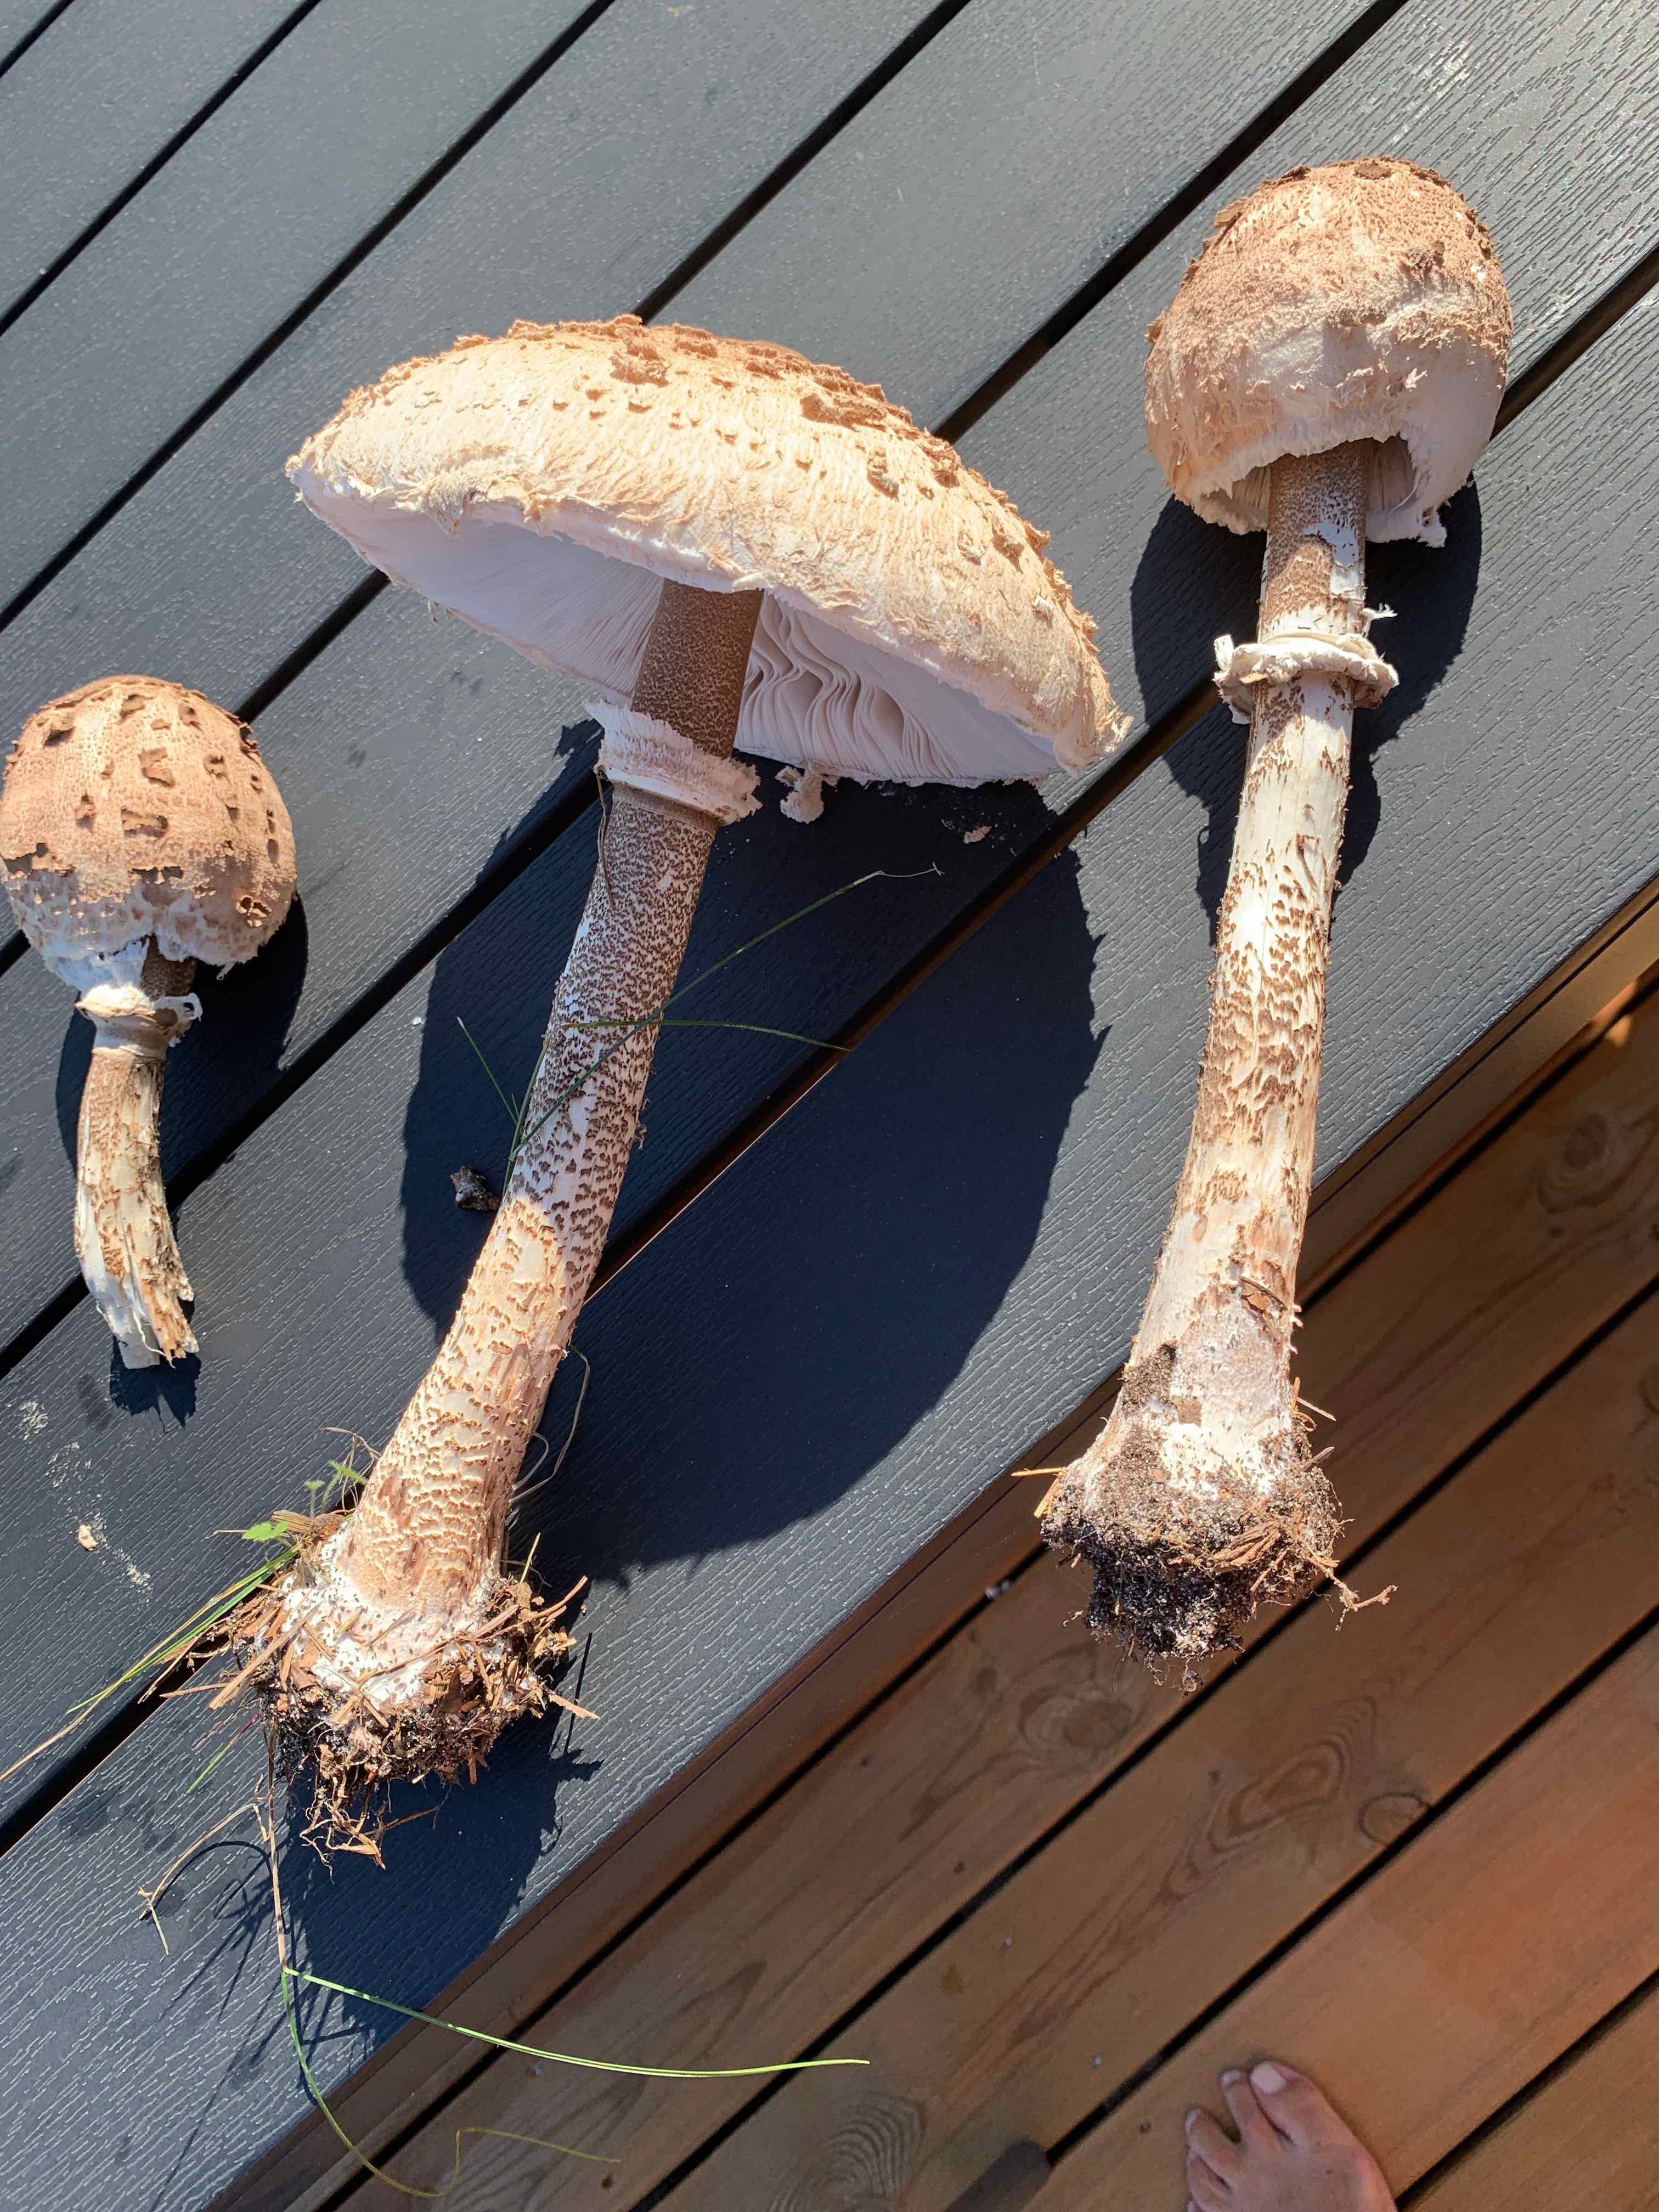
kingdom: Fungi
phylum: Basidiomycota
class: Agaricomycetes
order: Agaricales
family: Agaricaceae
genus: Macrolepiota
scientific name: Macrolepiota procera
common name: stor kæmpeparasolhat
